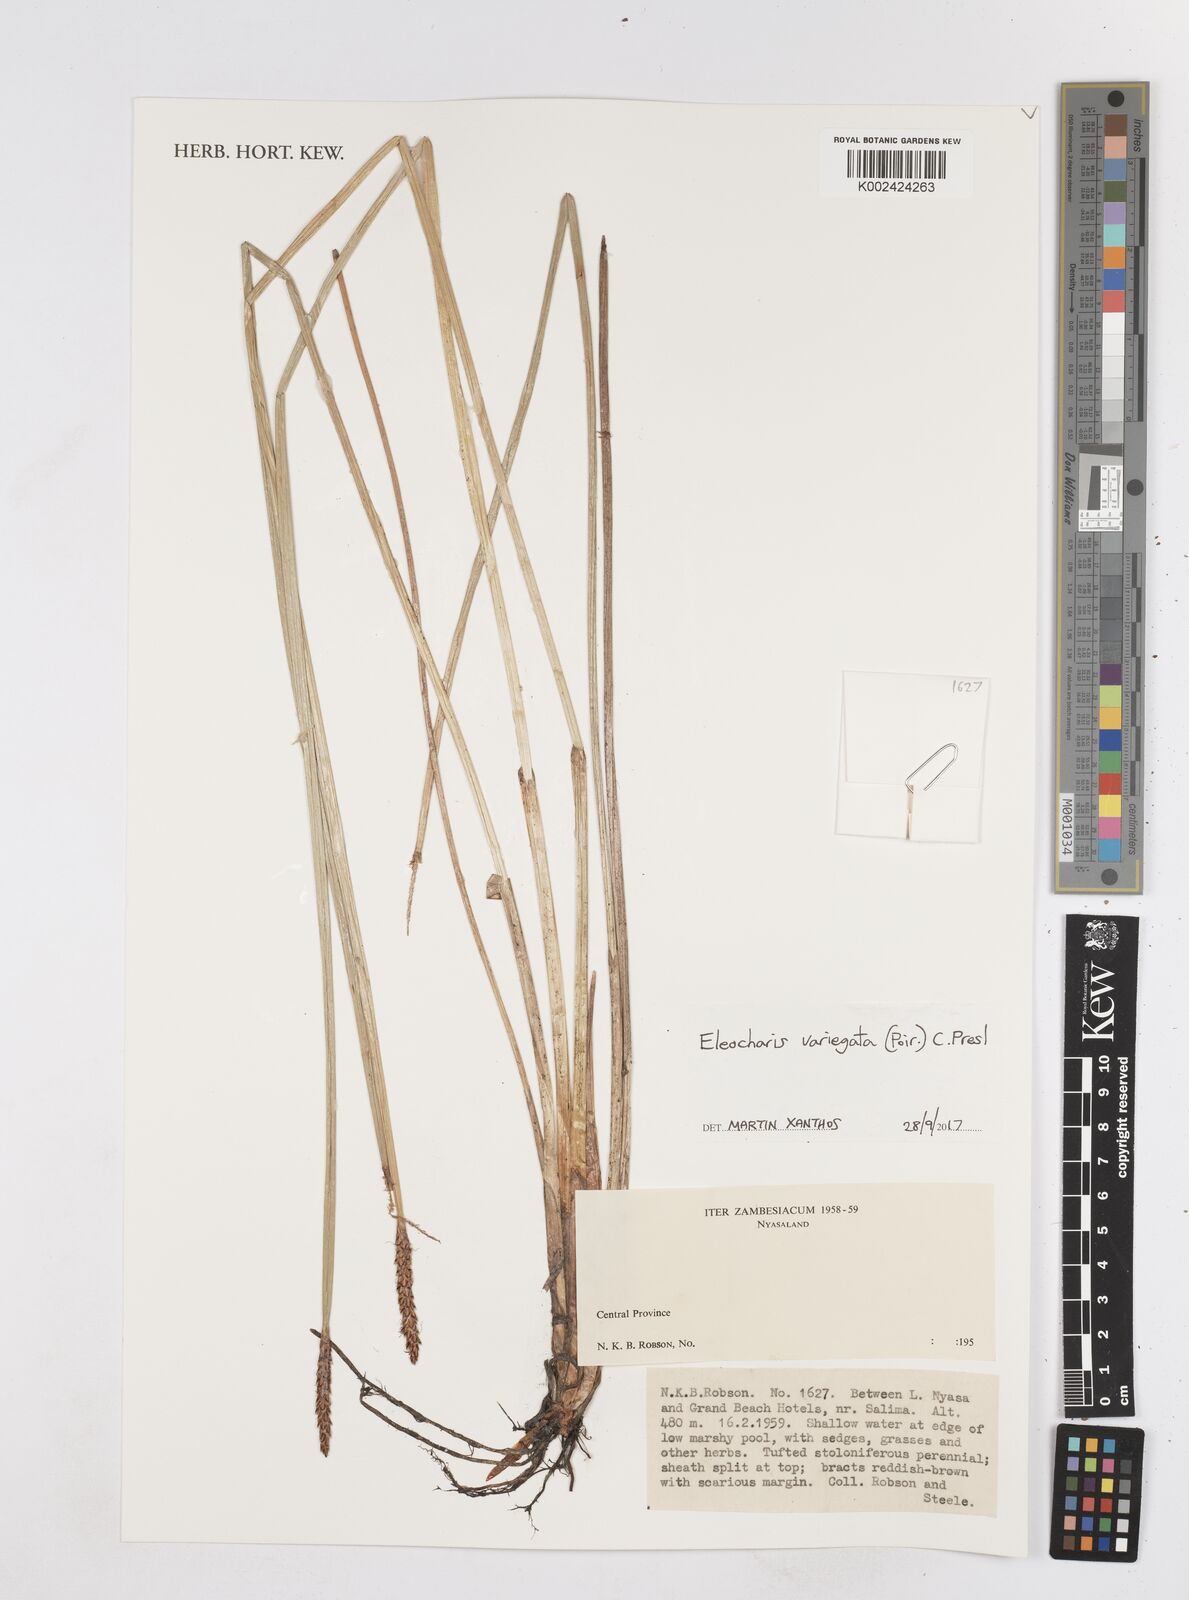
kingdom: Plantae
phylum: Tracheophyta
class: Liliopsida
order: Poales
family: Cyperaceae
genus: Eleocharis
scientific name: Eleocharis variegata
